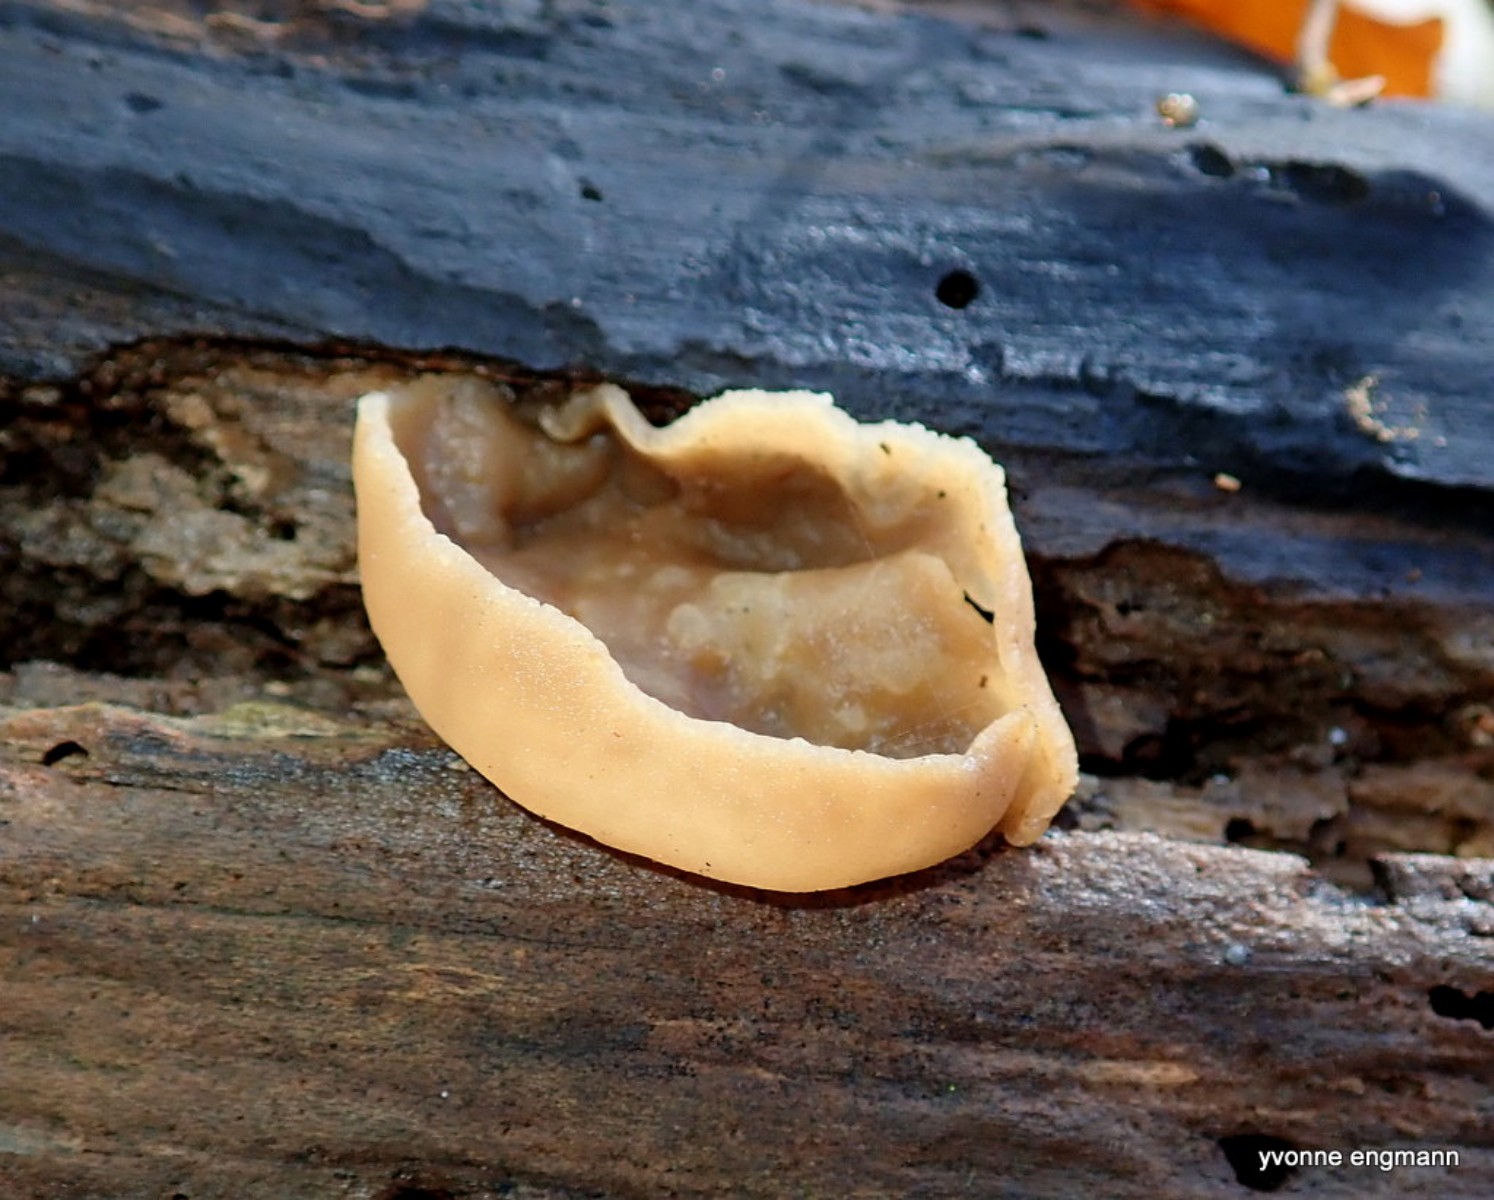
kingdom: Fungi
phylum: Ascomycota
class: Pezizomycetes
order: Pezizales
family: Pezizaceae
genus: Peziza
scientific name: Peziza varia
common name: Ved-bægersvamp
